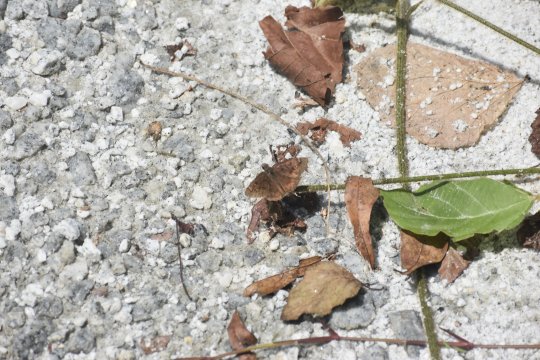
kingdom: Animalia
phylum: Arthropoda
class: Insecta
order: Lepidoptera
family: Hesperiidae
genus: Gesta
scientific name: Gesta
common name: Horace's Duskywing
